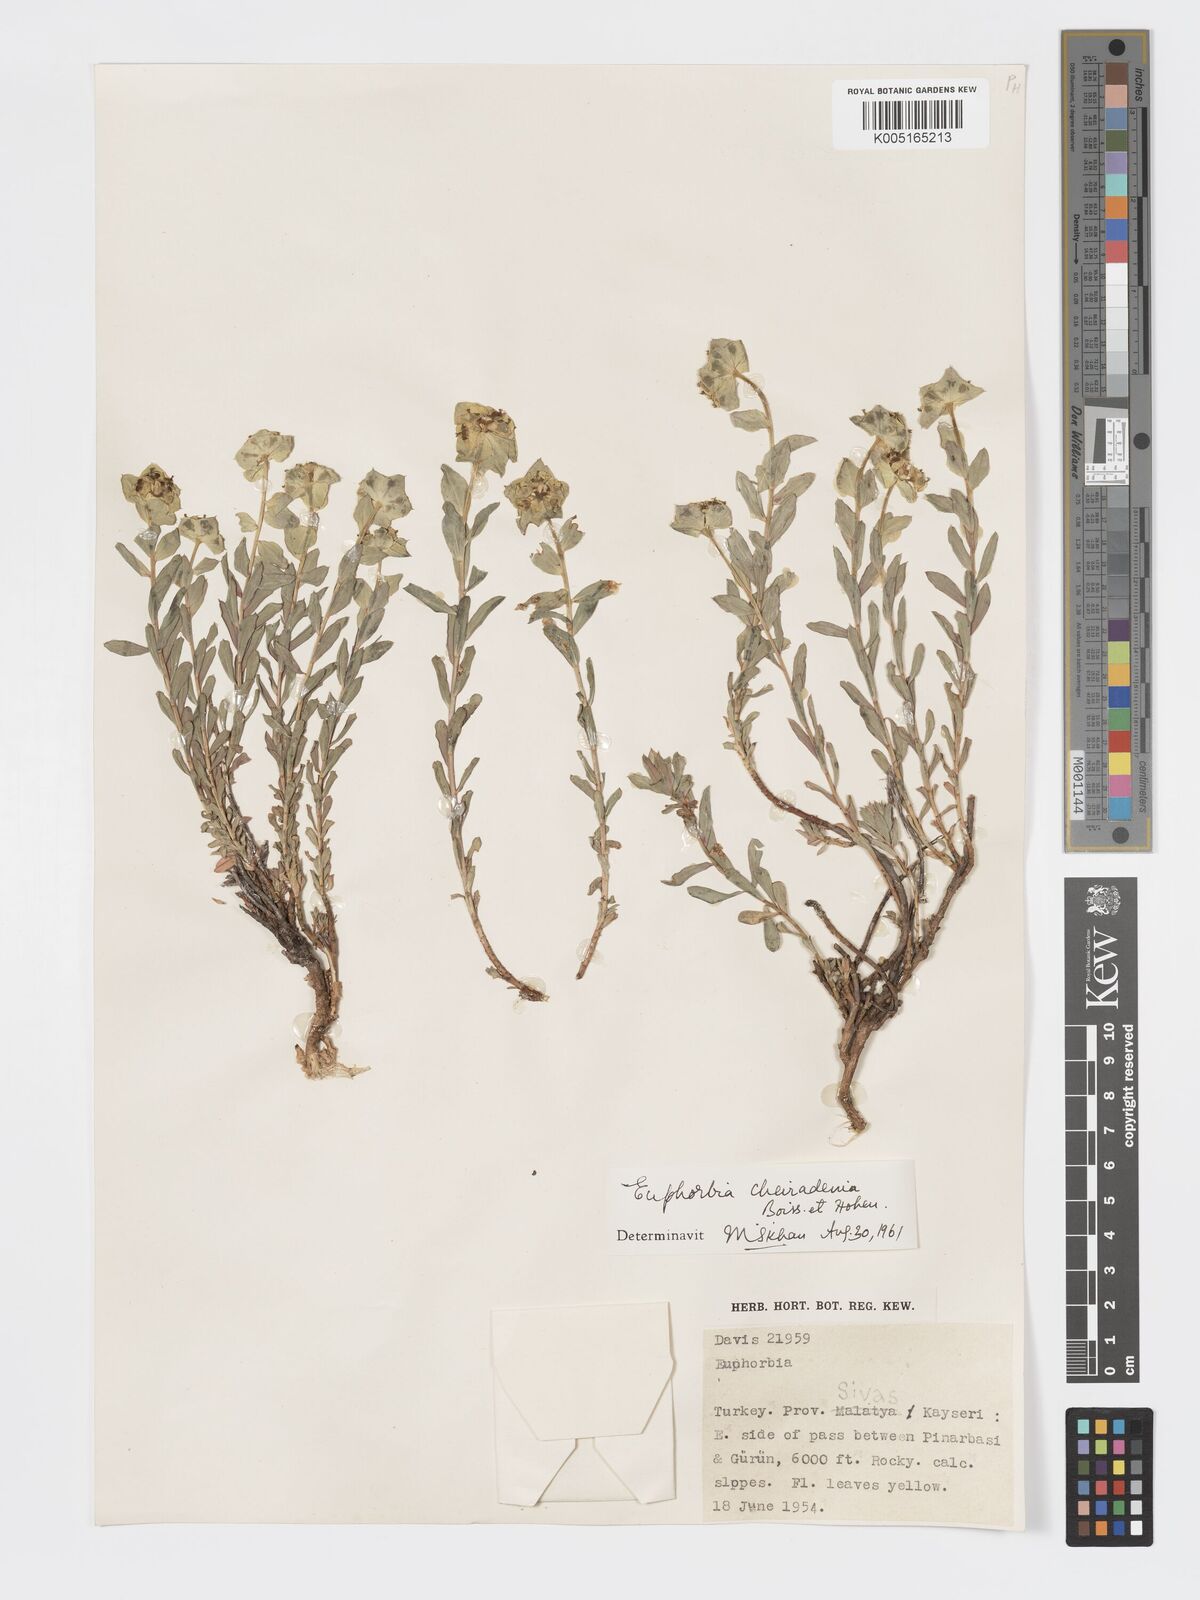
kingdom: Plantae
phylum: Tracheophyta
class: Magnoliopsida
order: Malpighiales
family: Euphorbiaceae
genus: Euphorbia
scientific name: Euphorbia cheiradenia
